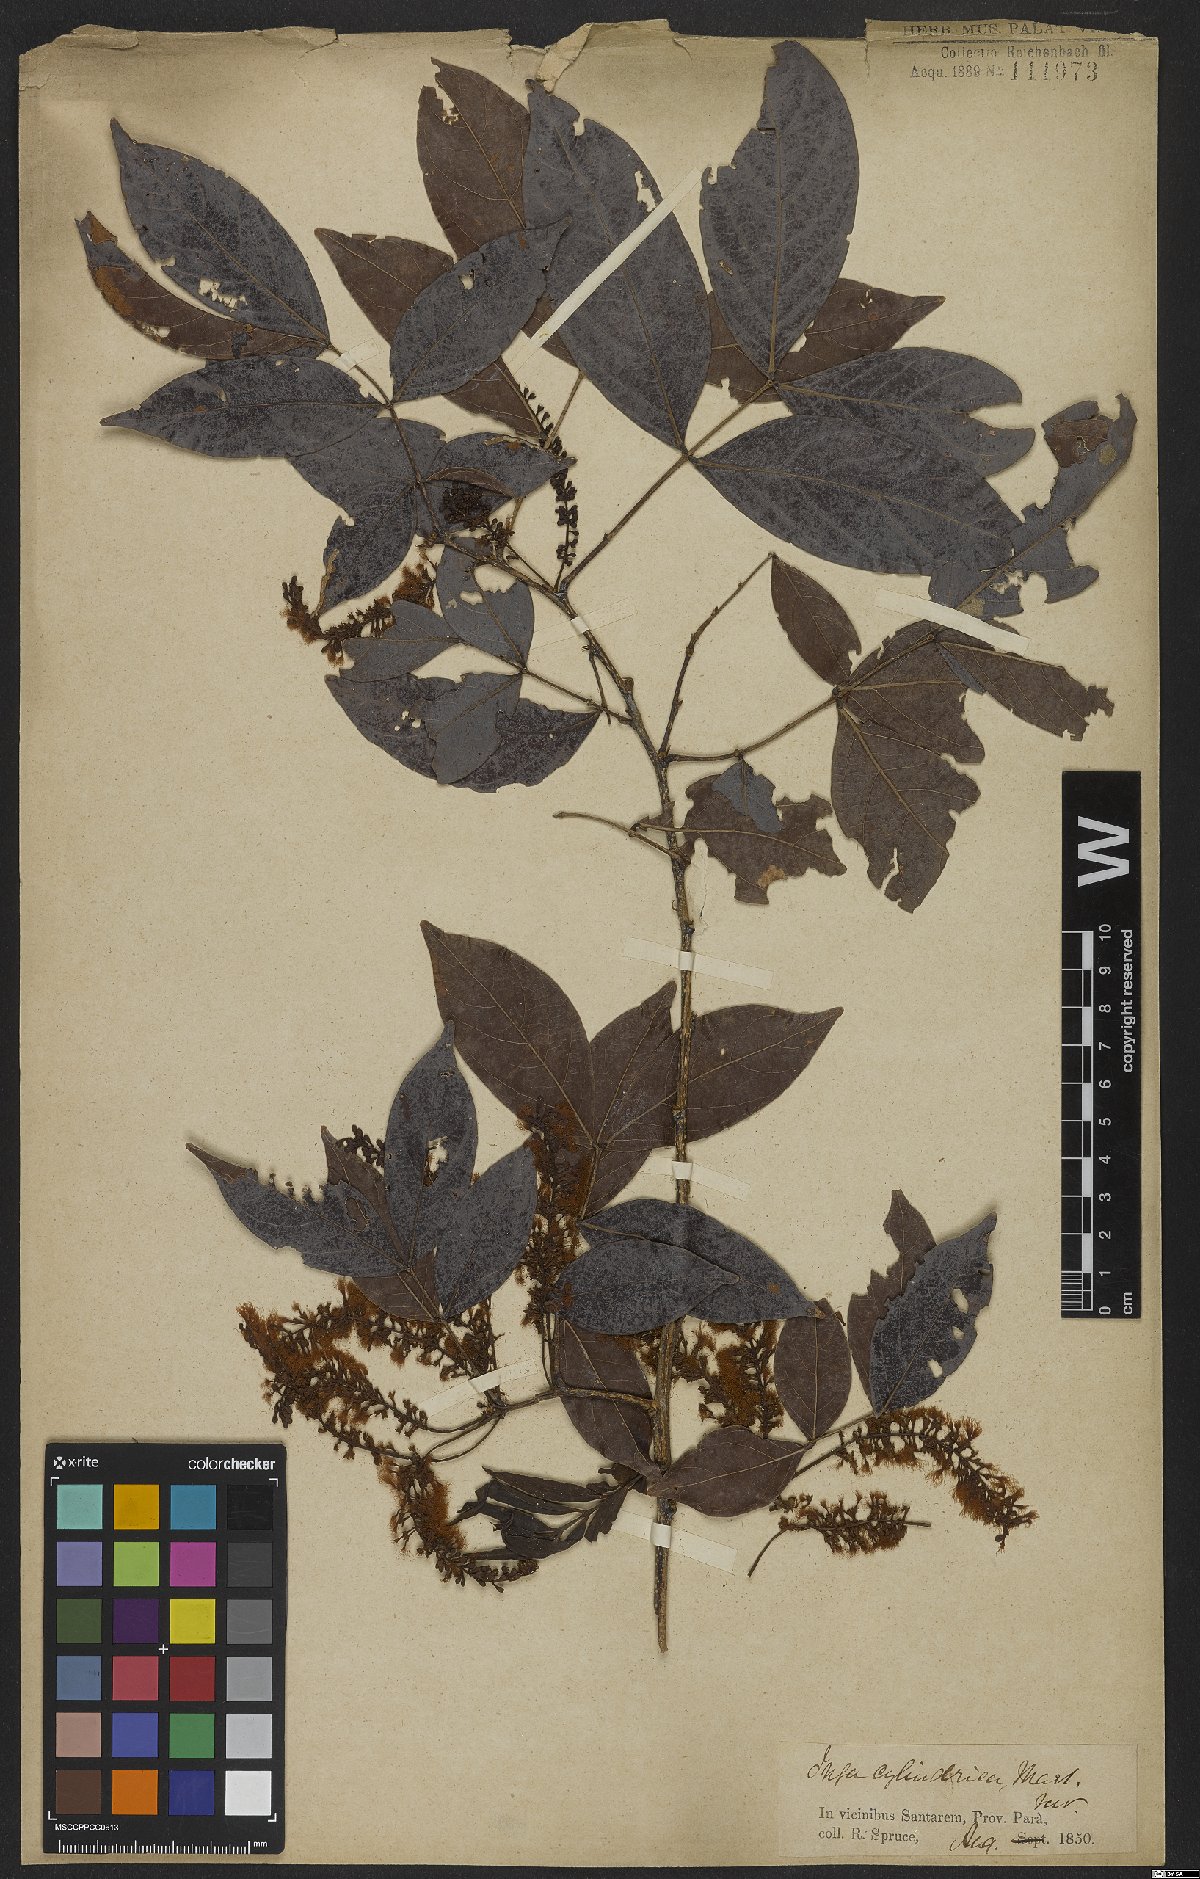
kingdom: Plantae
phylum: Tracheophyta
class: Magnoliopsida
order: Fabales
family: Fabaceae
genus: Inga
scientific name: Inga cylindrica
